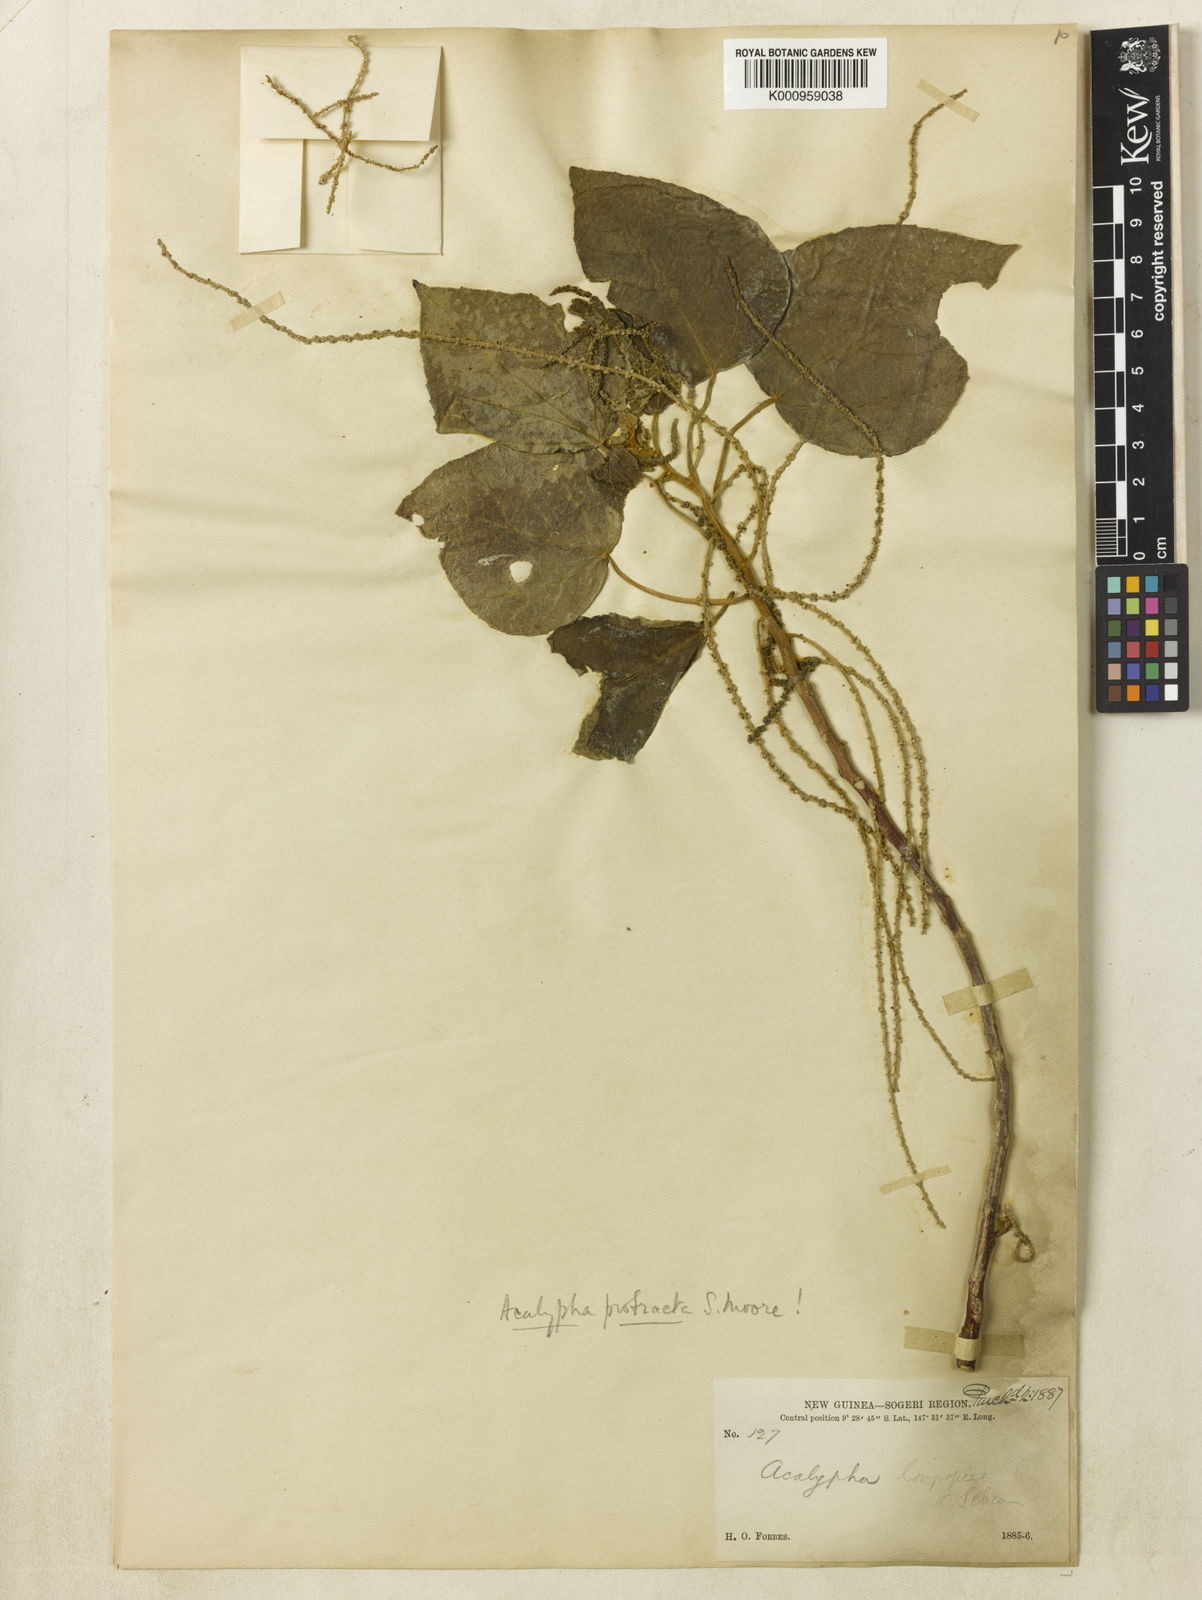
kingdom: Plantae
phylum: Tracheophyta
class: Magnoliopsida
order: Malpighiales
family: Euphorbiaceae
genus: Acalypha
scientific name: Acalypha
